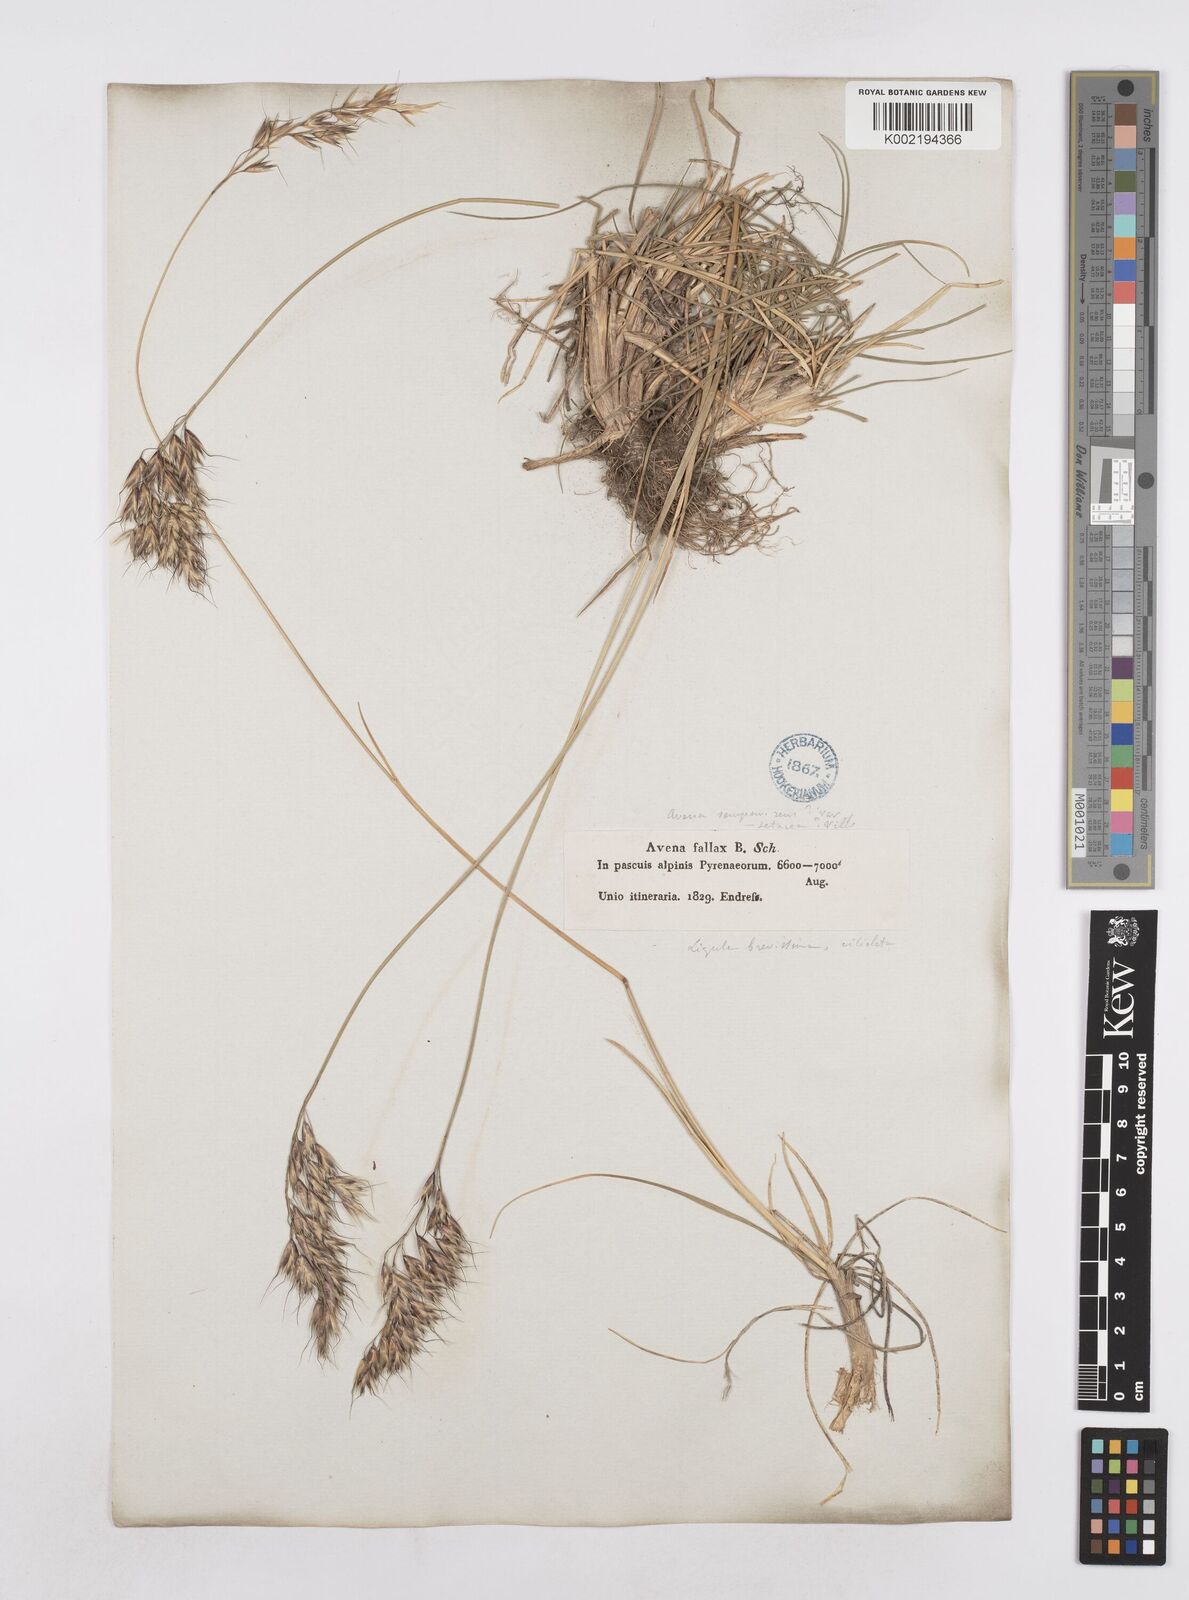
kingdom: Plantae
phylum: Tracheophyta
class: Liliopsida
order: Poales
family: Poaceae
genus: Helictotrichon
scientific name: Helictotrichon parlatorei
